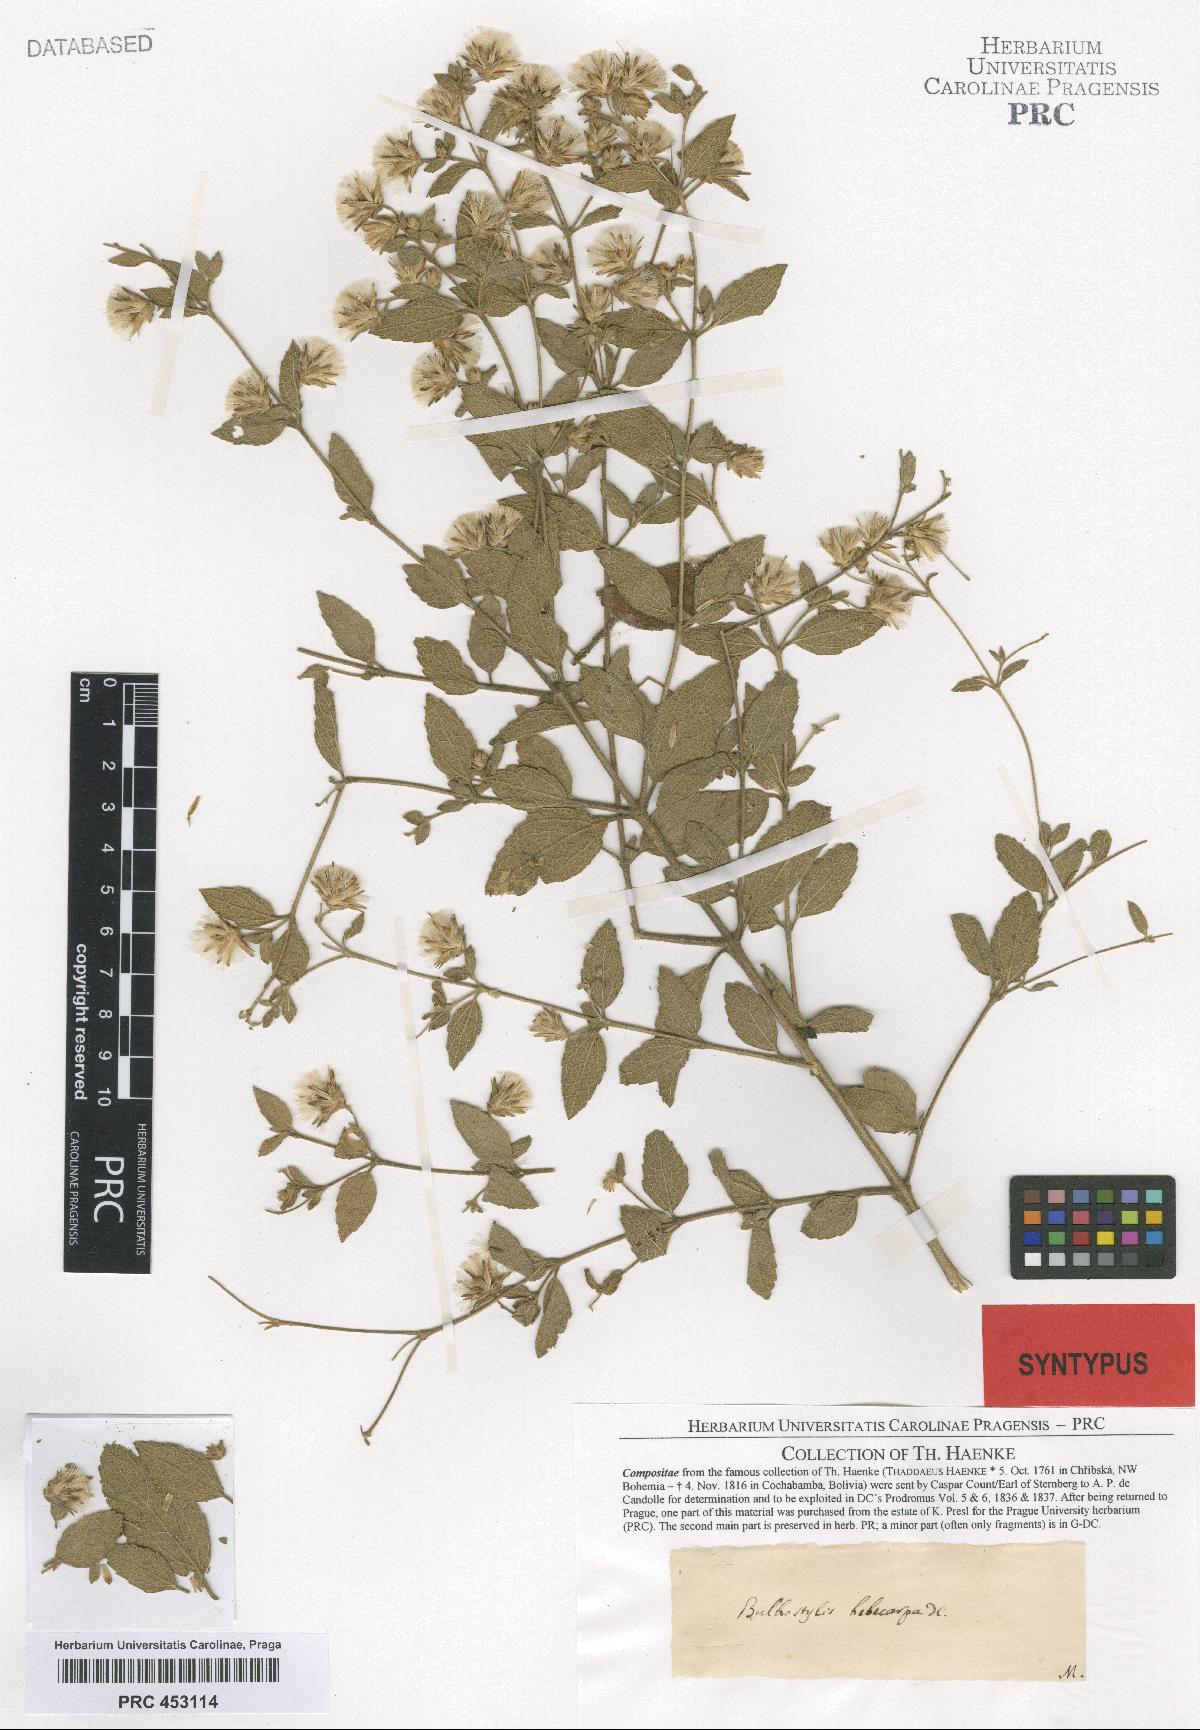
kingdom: Plantae
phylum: Tracheophyta
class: Magnoliopsida
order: Asterales
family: Asteraceae
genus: Brickellia
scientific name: Brickellia paniculata
